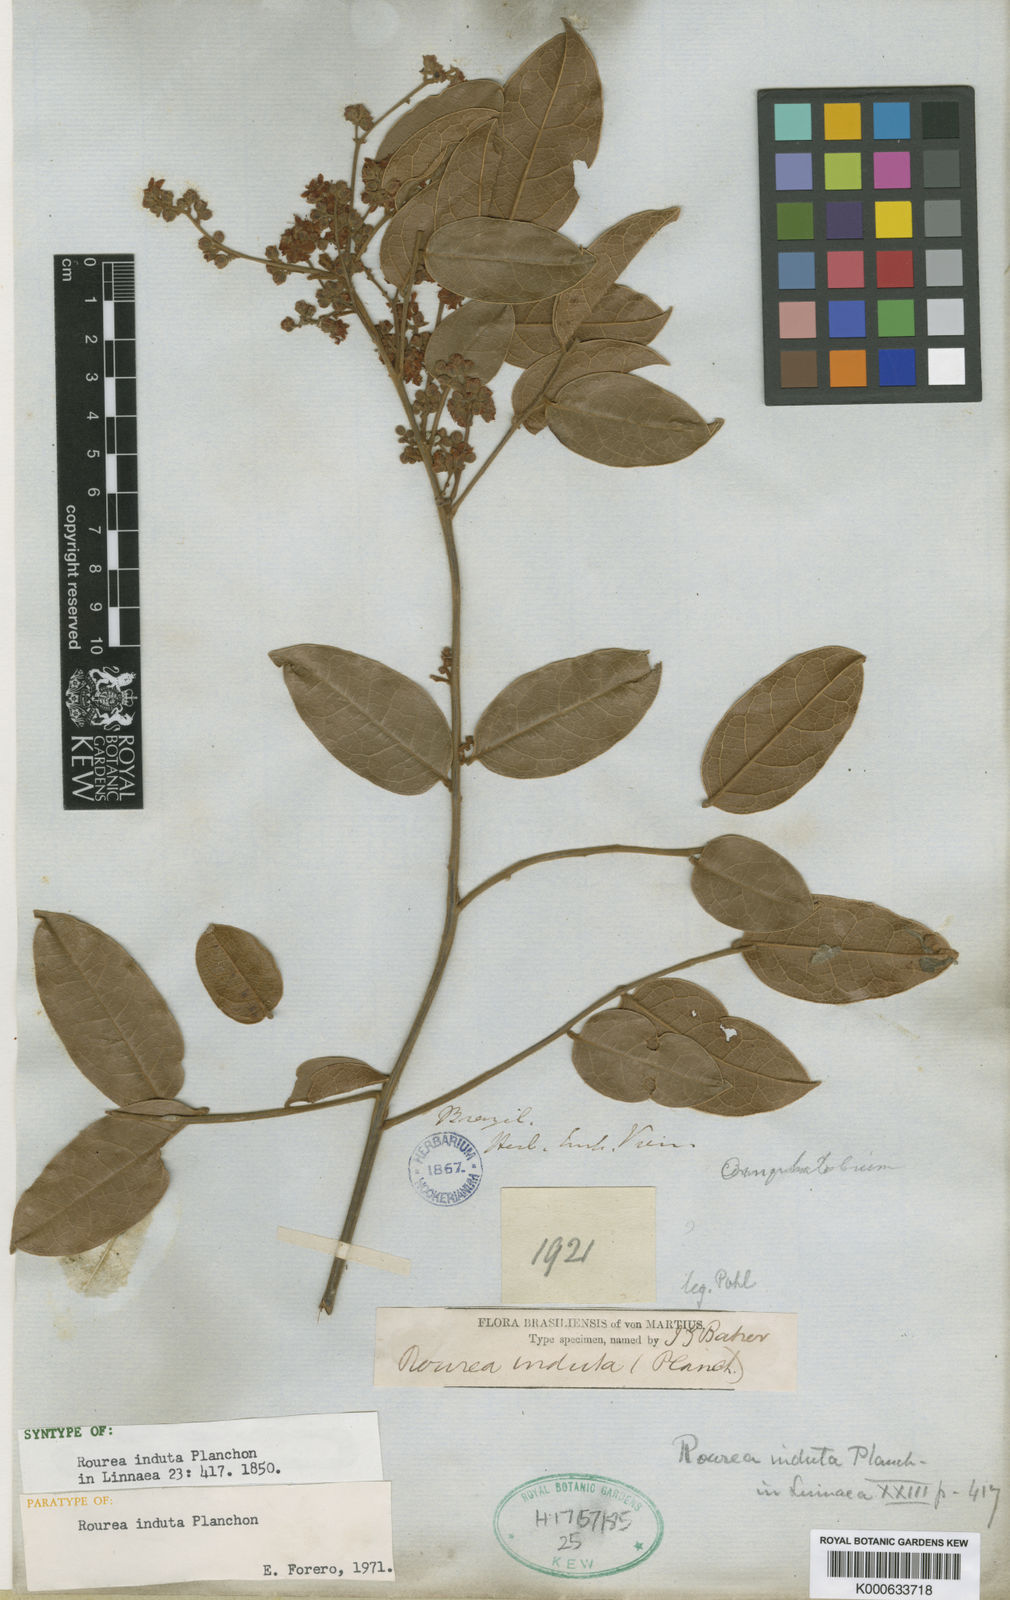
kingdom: Plantae
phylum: Tracheophyta
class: Magnoliopsida
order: Oxalidales
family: Connaraceae
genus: Rourea
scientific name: Rourea induta
